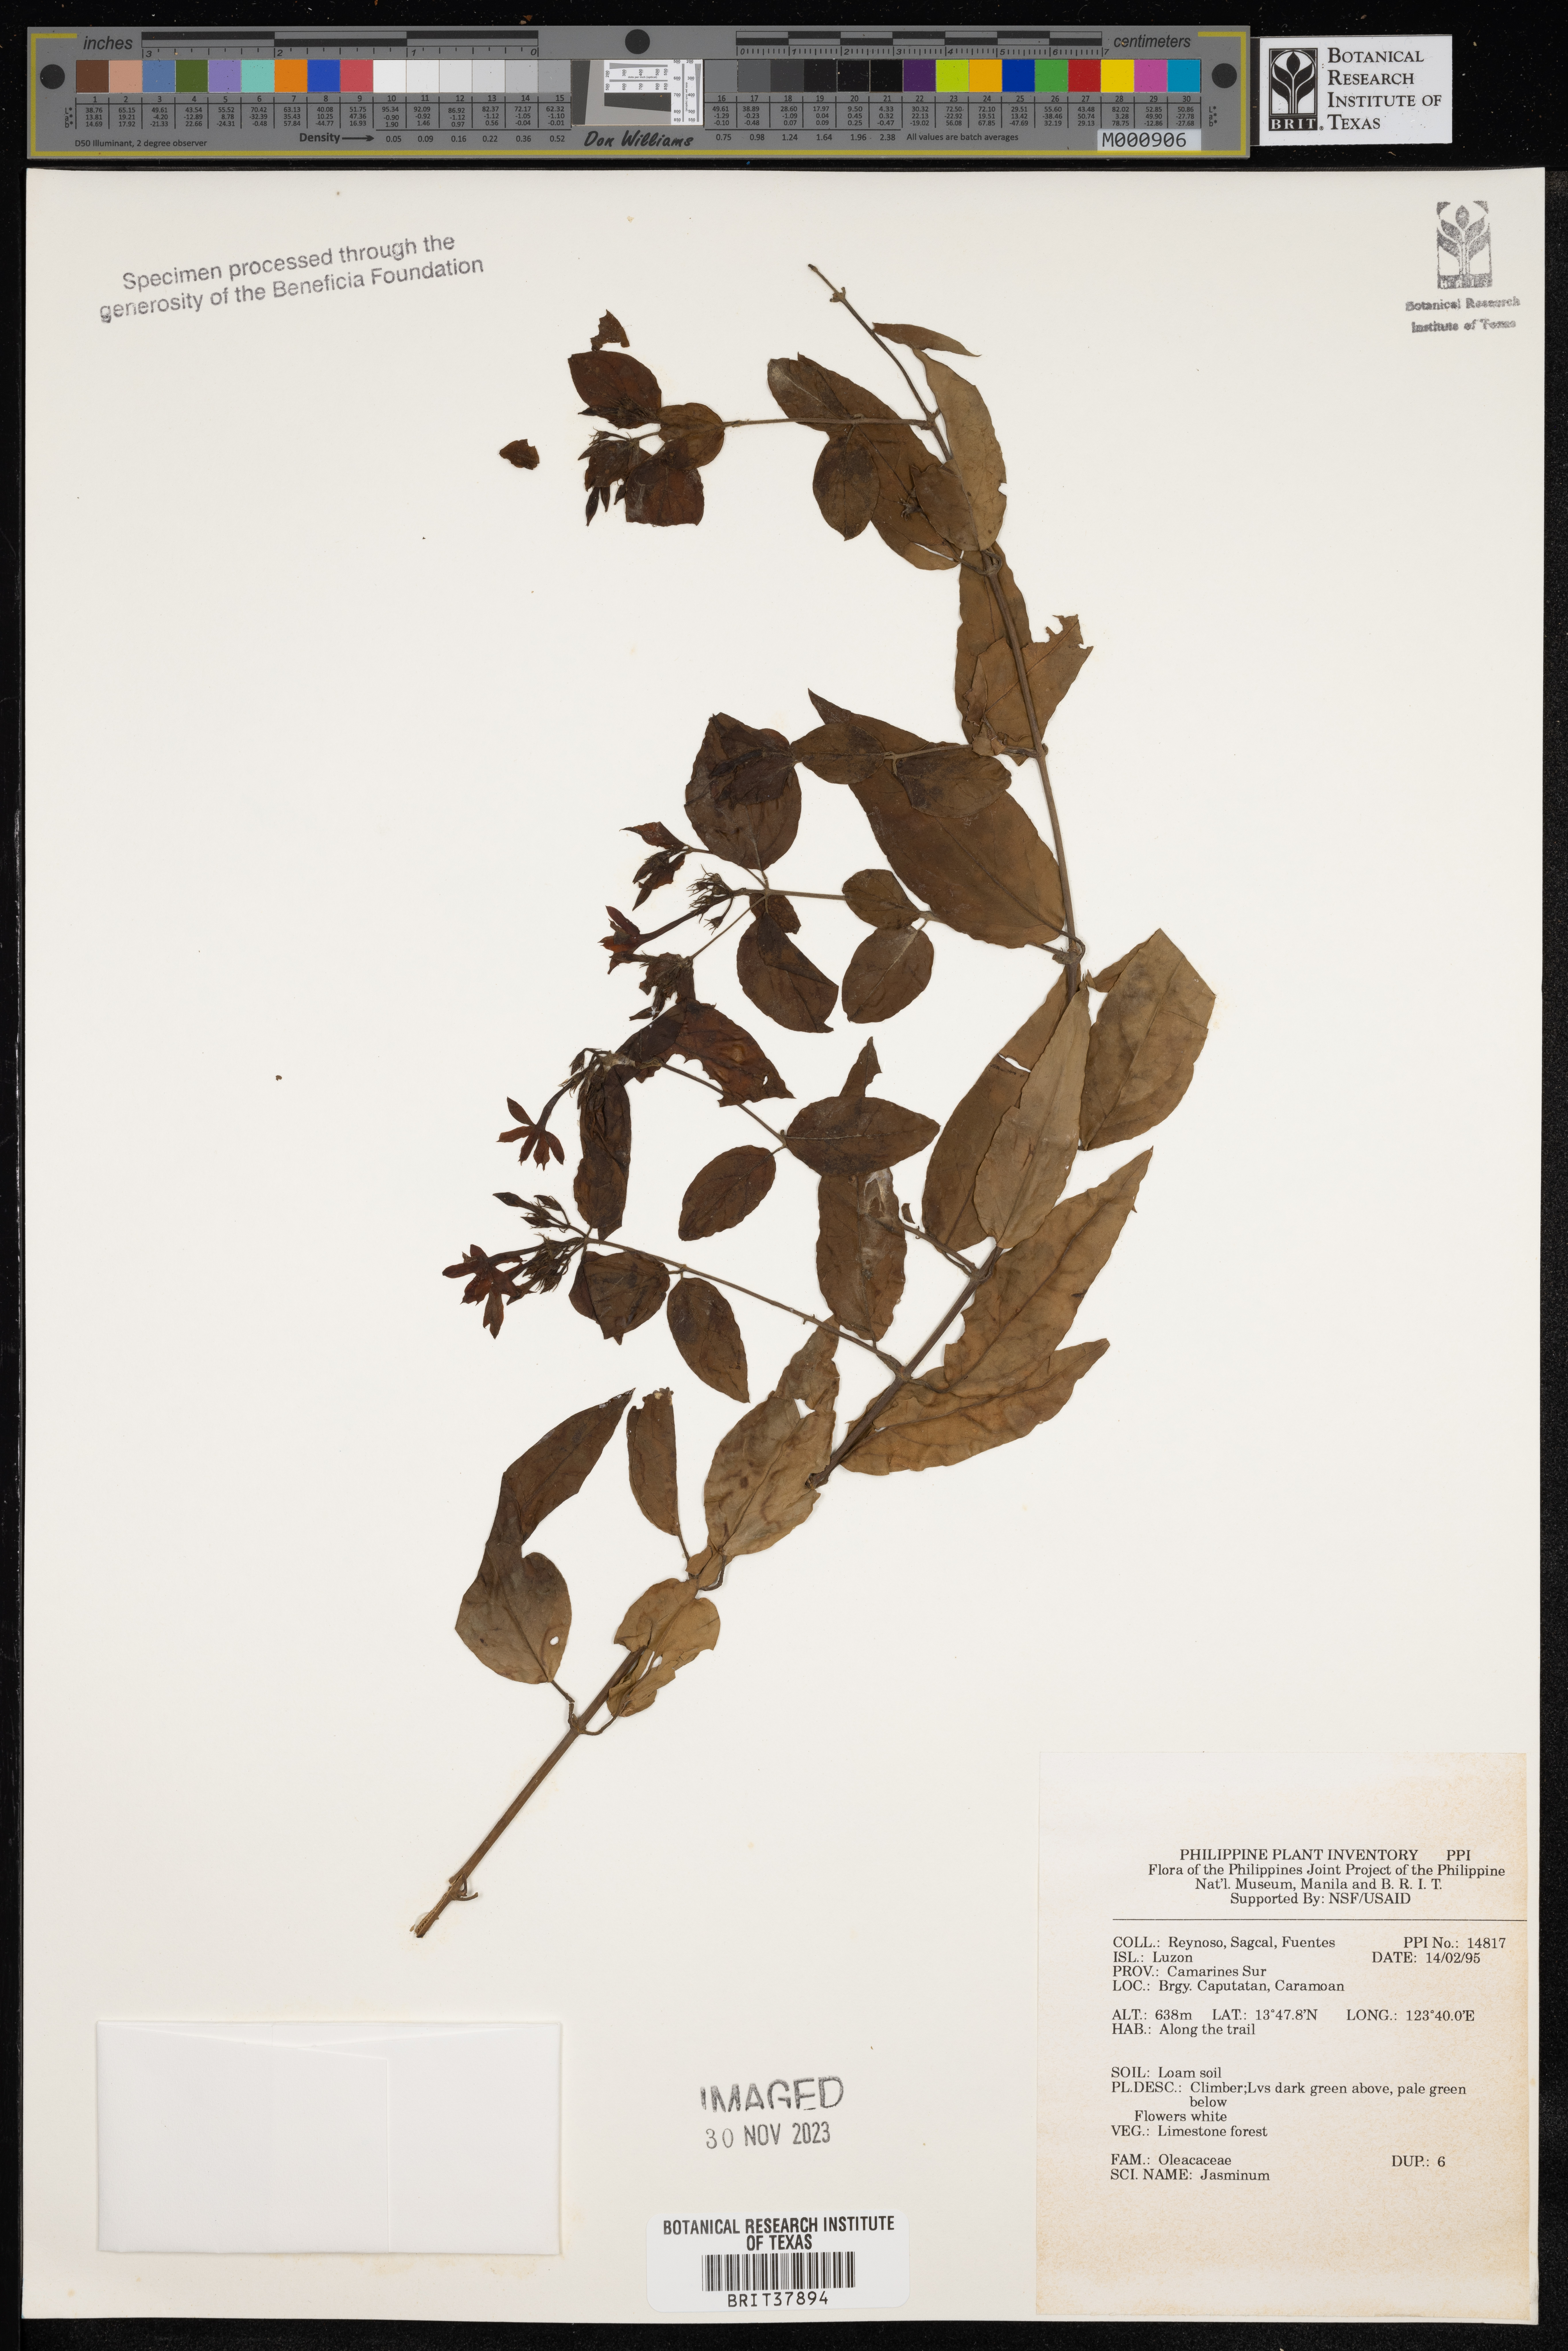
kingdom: Plantae
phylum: Tracheophyta
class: Magnoliopsida
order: Lamiales
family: Oleaceae
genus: Jasminum
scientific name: Jasminum
